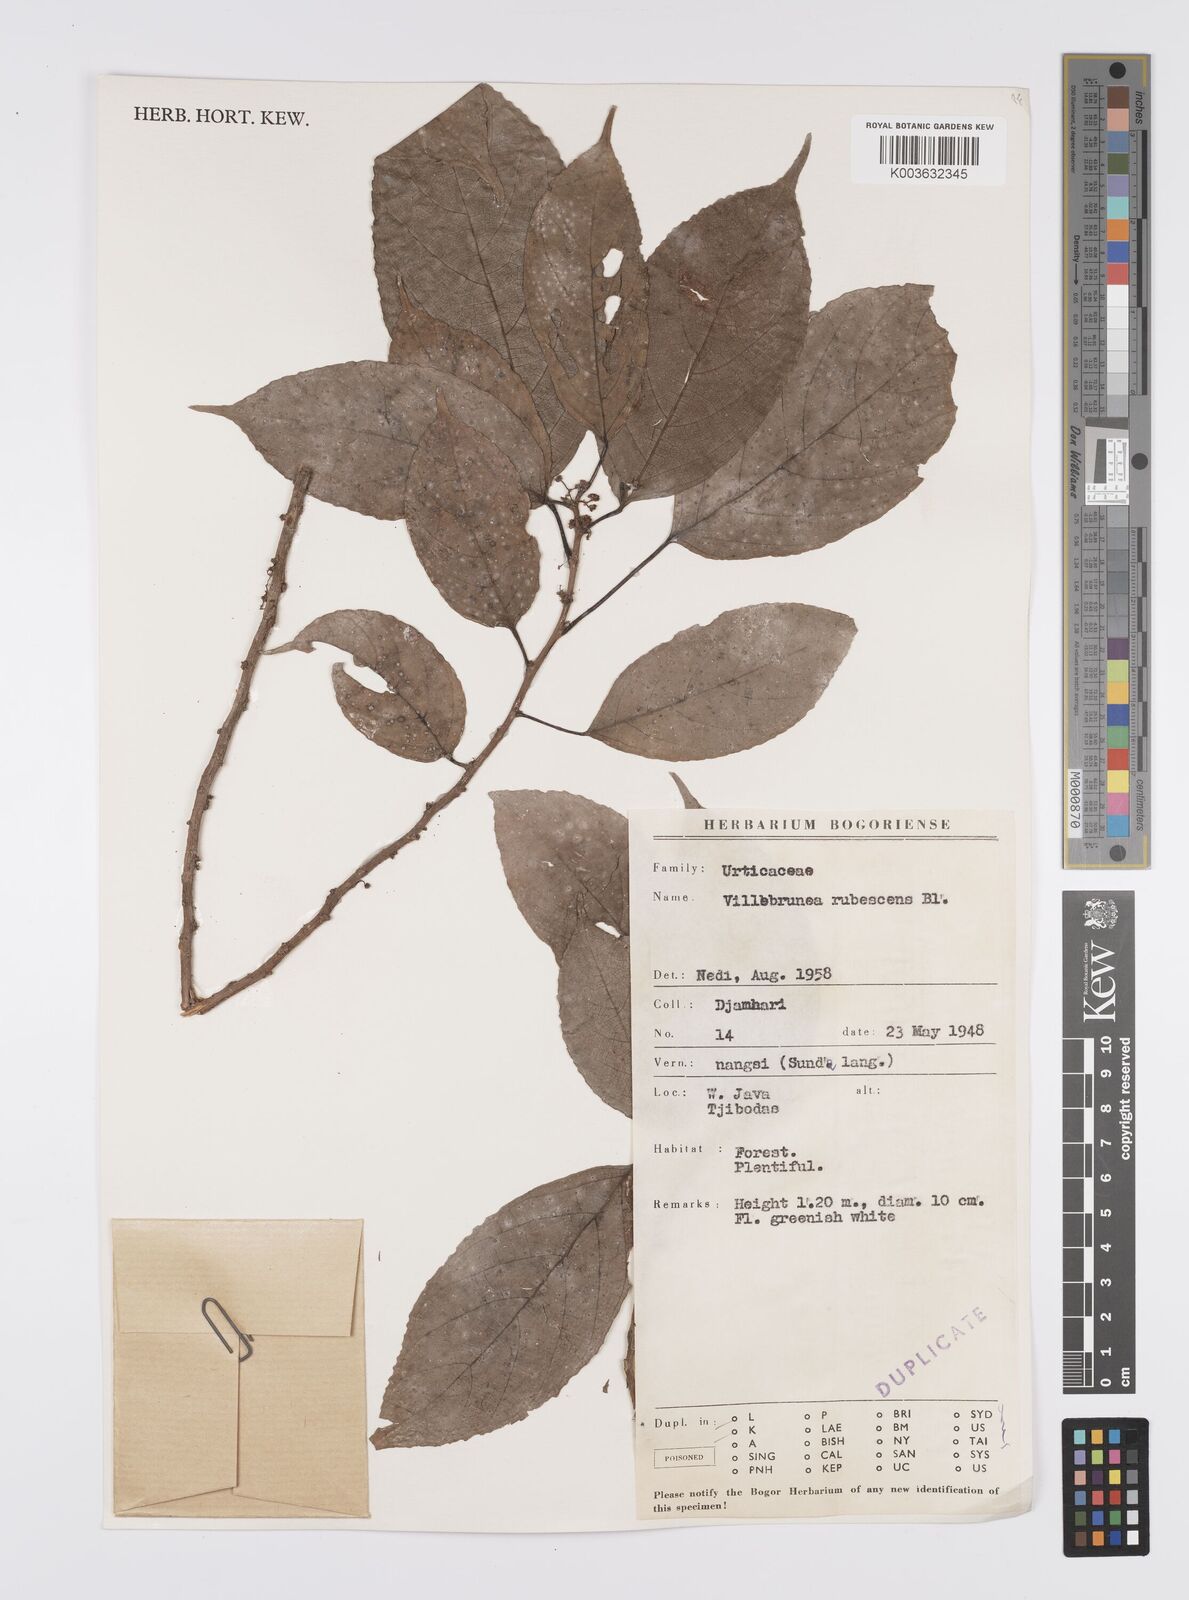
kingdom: Plantae
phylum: Tracheophyta
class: Magnoliopsida
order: Rosales
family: Urticaceae
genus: Oreocnide
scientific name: Oreocnide rubescens
